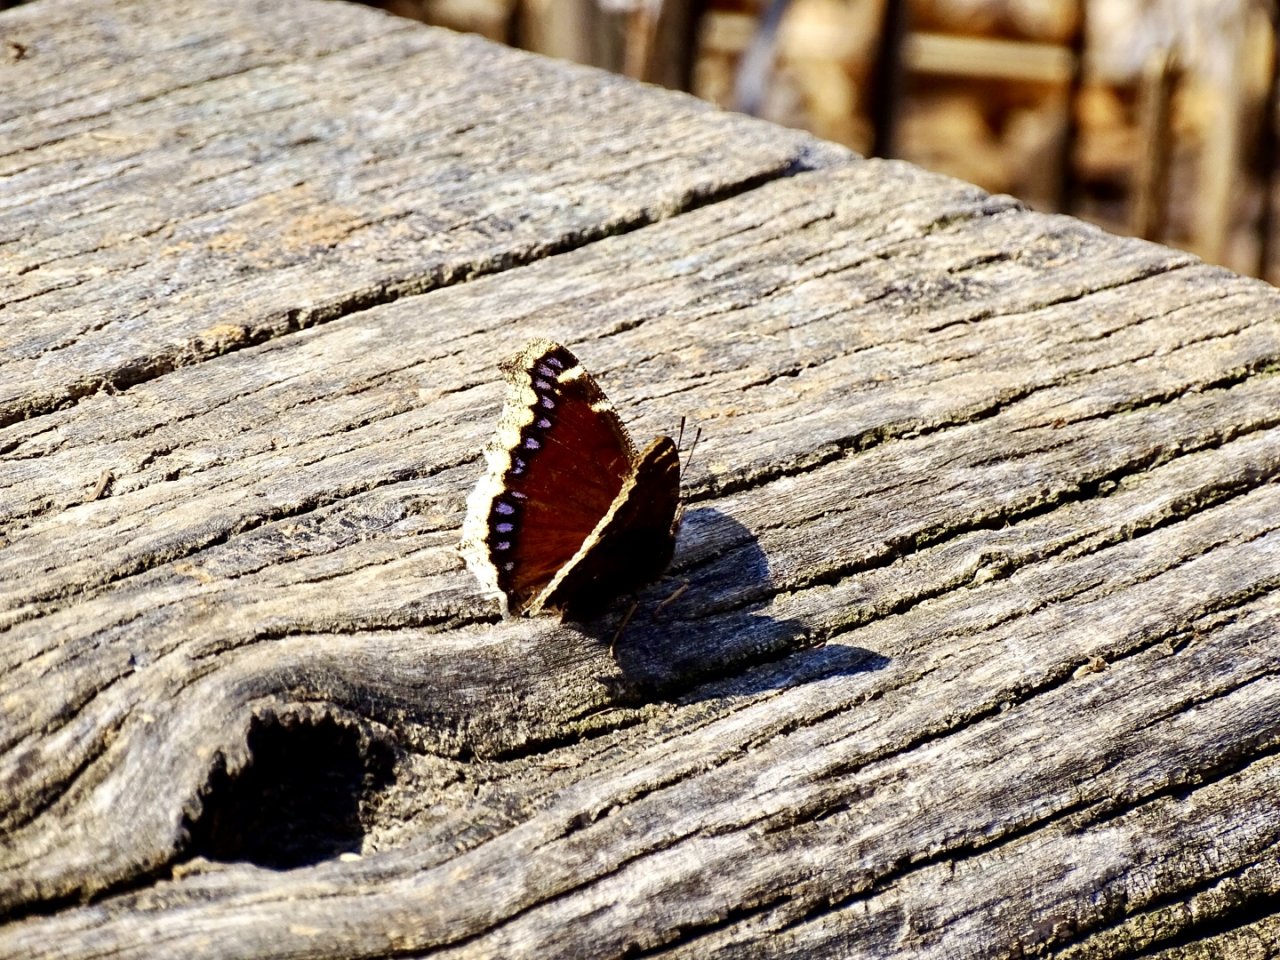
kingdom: Animalia
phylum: Arthropoda
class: Insecta
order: Lepidoptera
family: Nymphalidae
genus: Nymphalis
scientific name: Nymphalis antiopa
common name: Mourning Cloak
